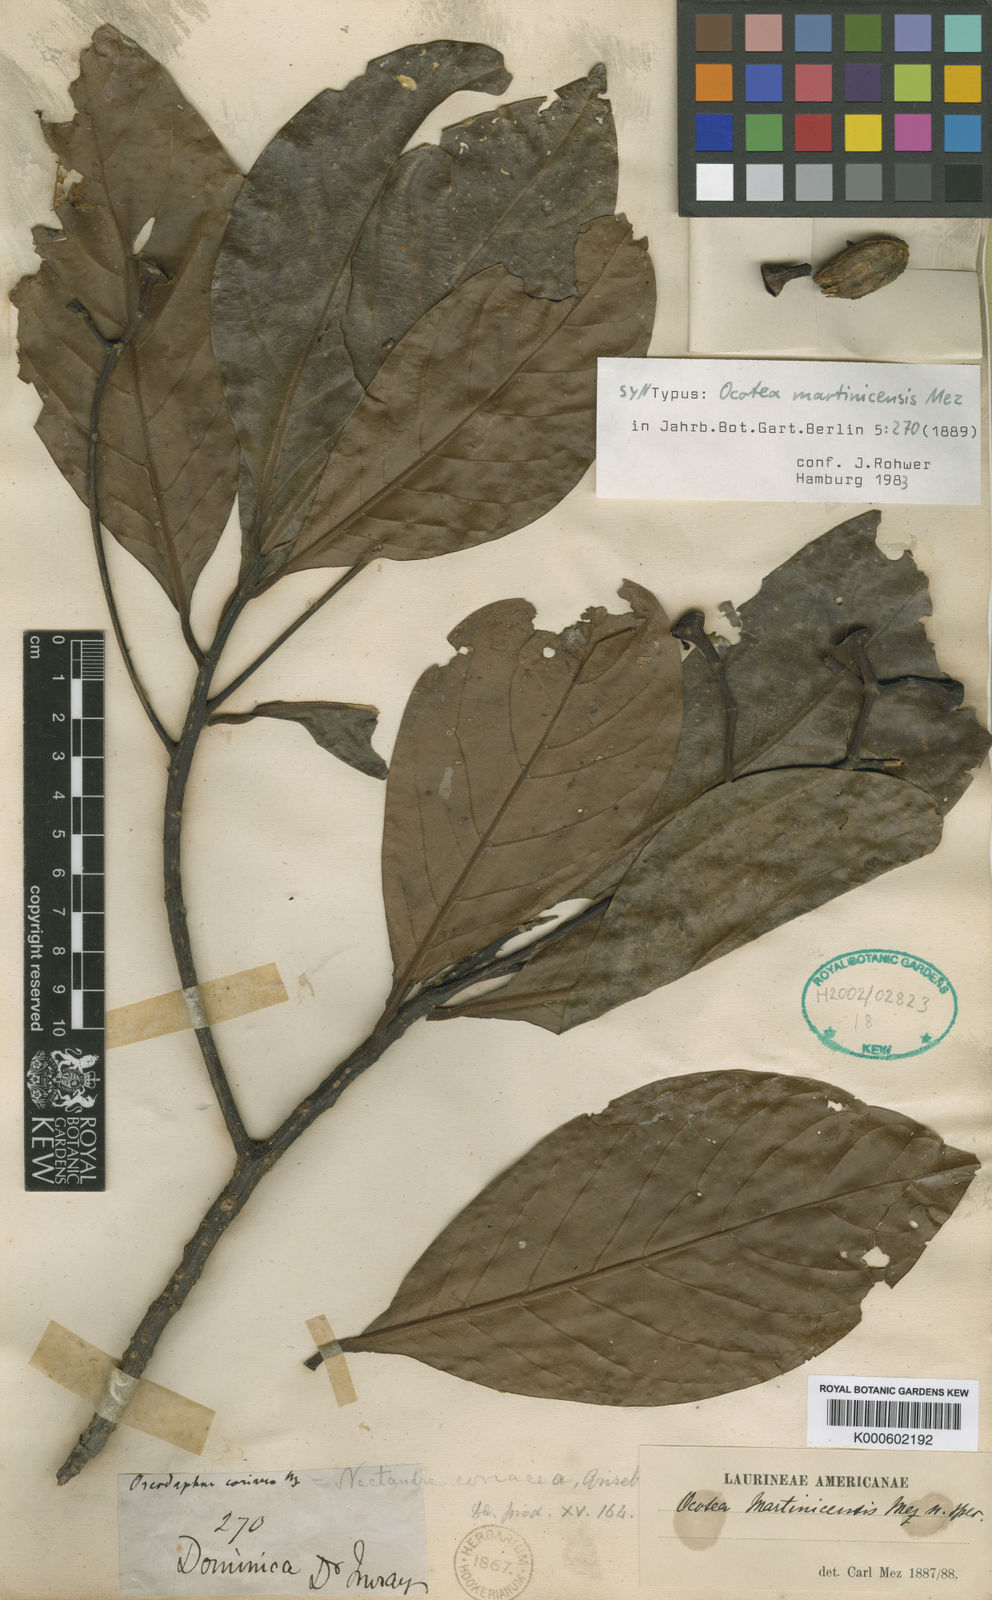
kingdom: Plantae
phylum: Tracheophyta
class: Magnoliopsida
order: Laurales
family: Lauraceae
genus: Ocotea
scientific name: Ocotea martinicensis
